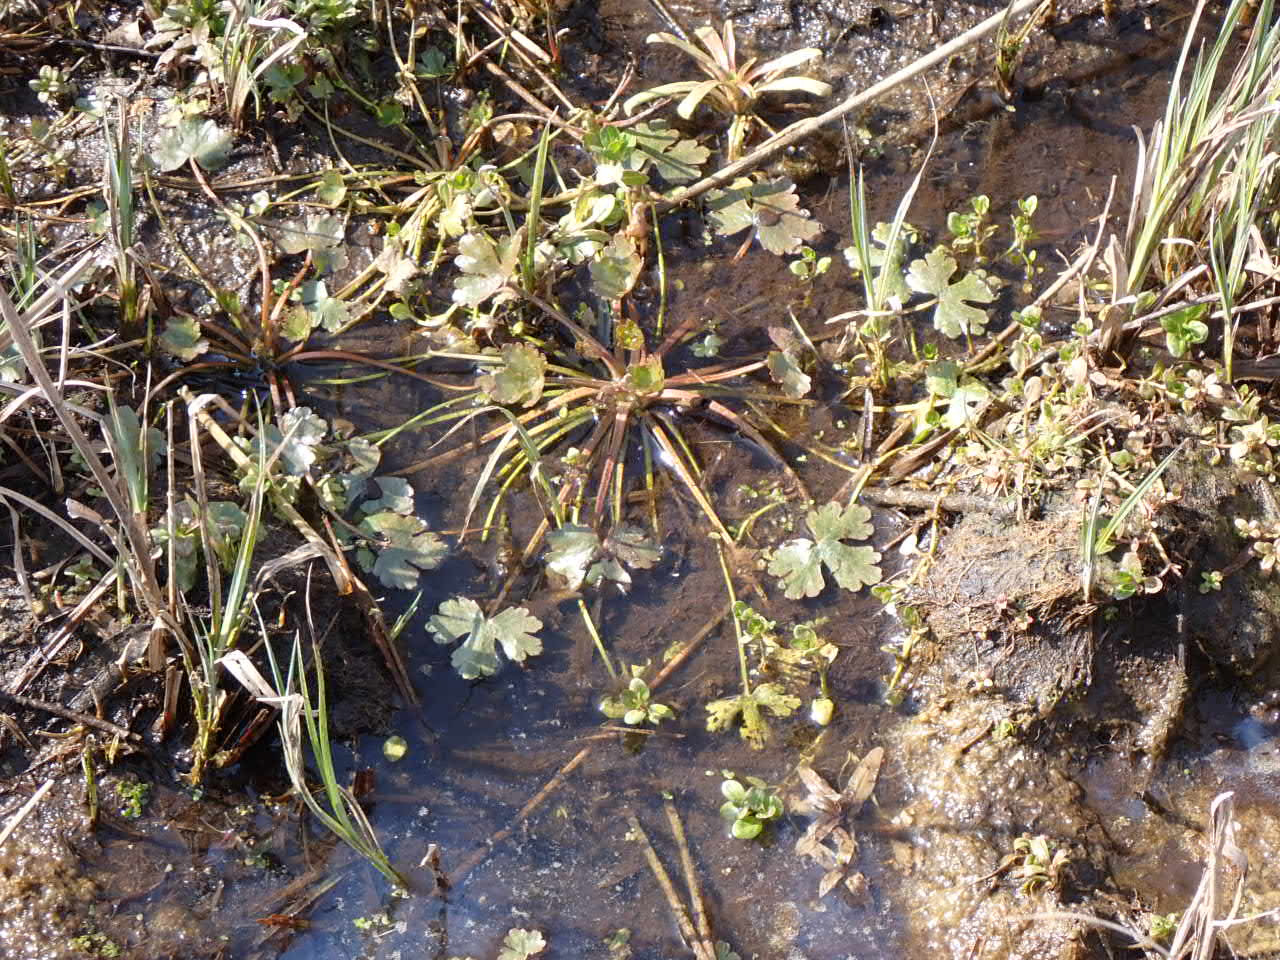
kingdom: Plantae
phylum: Tracheophyta
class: Magnoliopsida
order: Ranunculales
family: Ranunculaceae
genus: Ranunculus
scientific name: Ranunculus sceleratus
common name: Tigger-ranunkel
